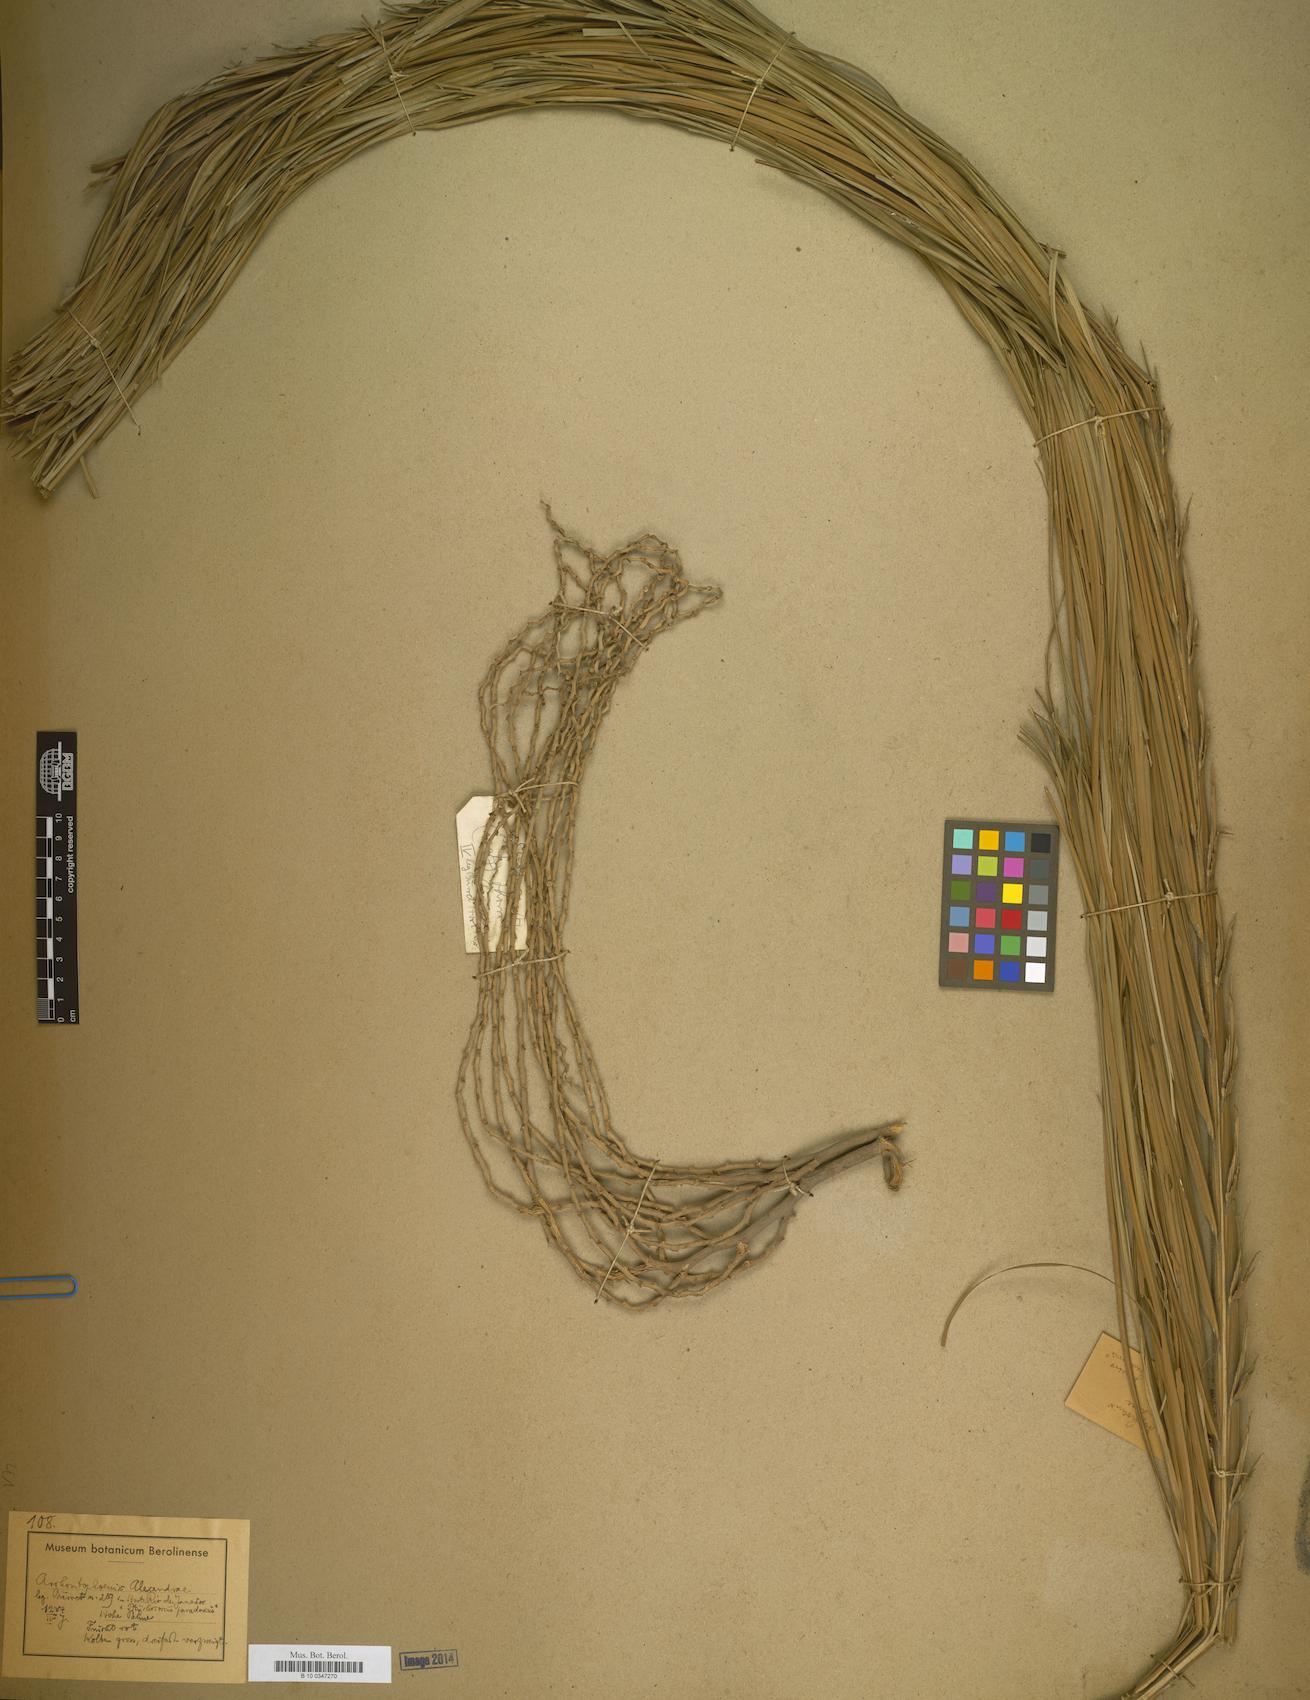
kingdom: Plantae
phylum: Tracheophyta
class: Liliopsida
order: Arecales
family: Arecaceae
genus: Archontophoenix
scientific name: Archontophoenix alexandrae
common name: Alexandra palm
